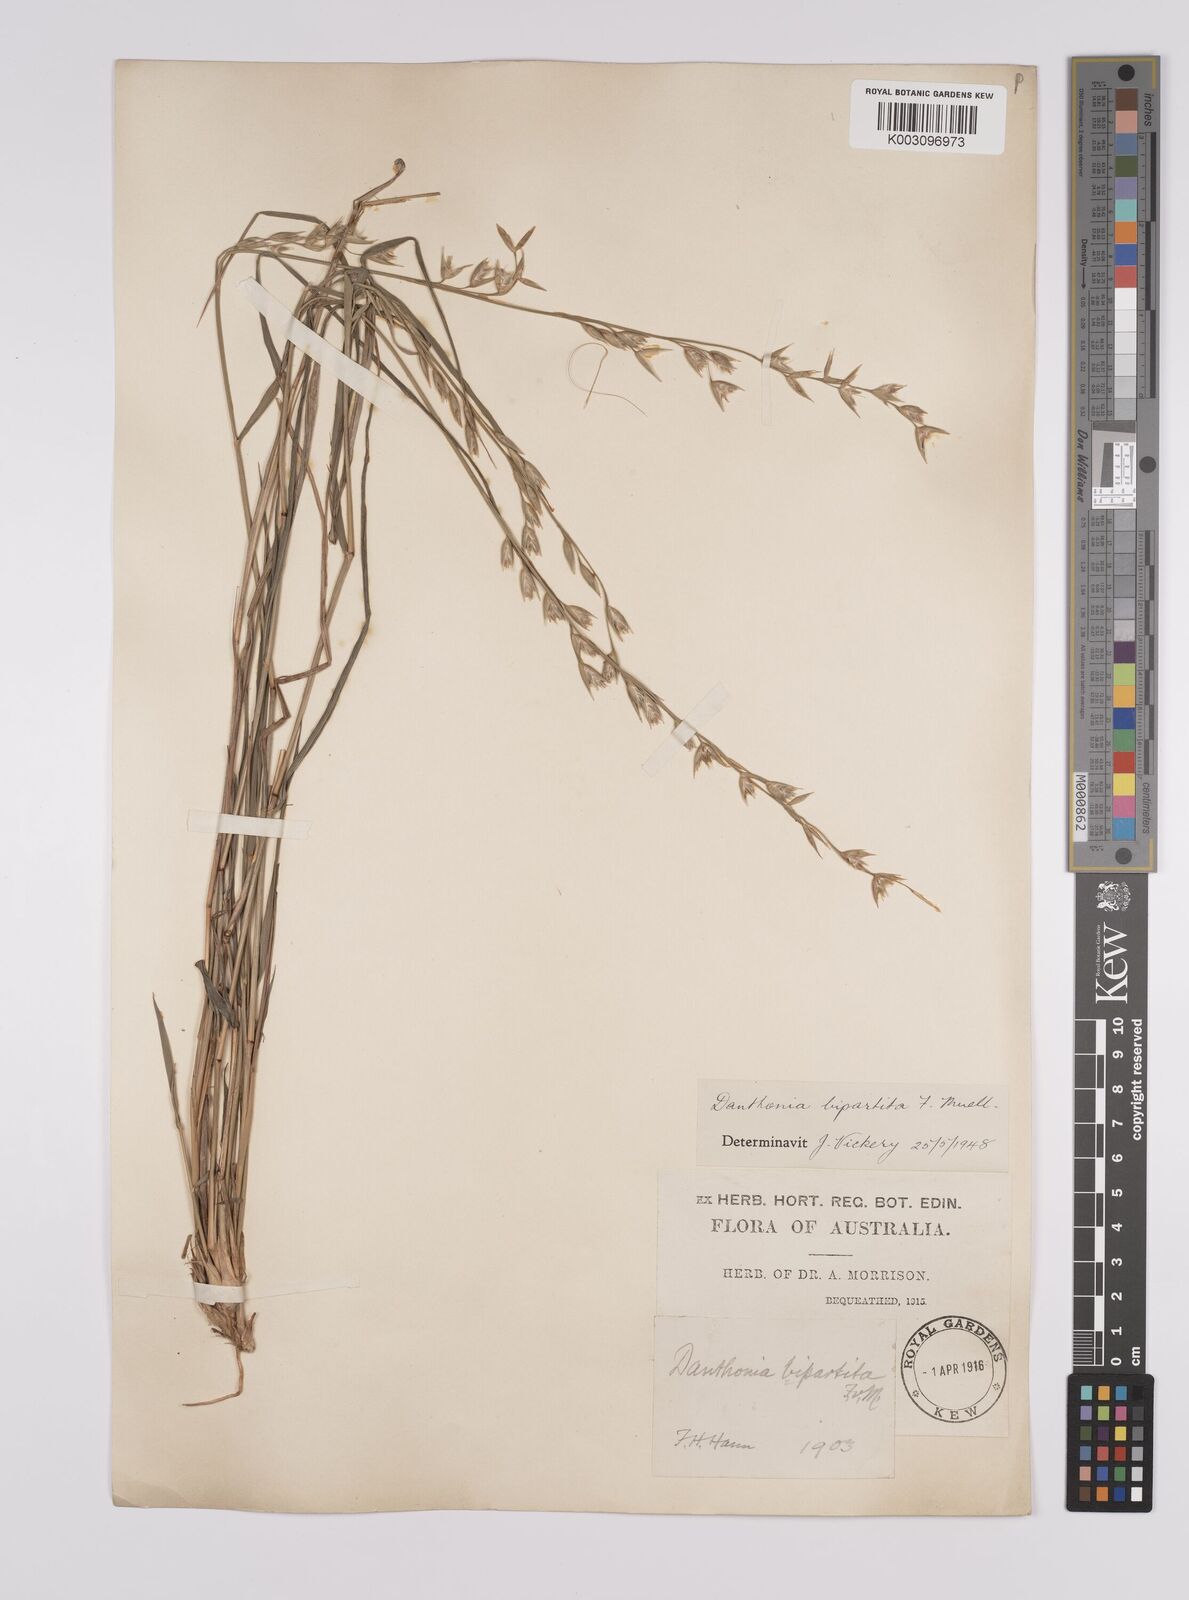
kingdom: Plantae
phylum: Tracheophyta
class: Liliopsida
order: Poales
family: Poaceae
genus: Monachather
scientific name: Monachather paradoxus
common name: Bandicoot grass
